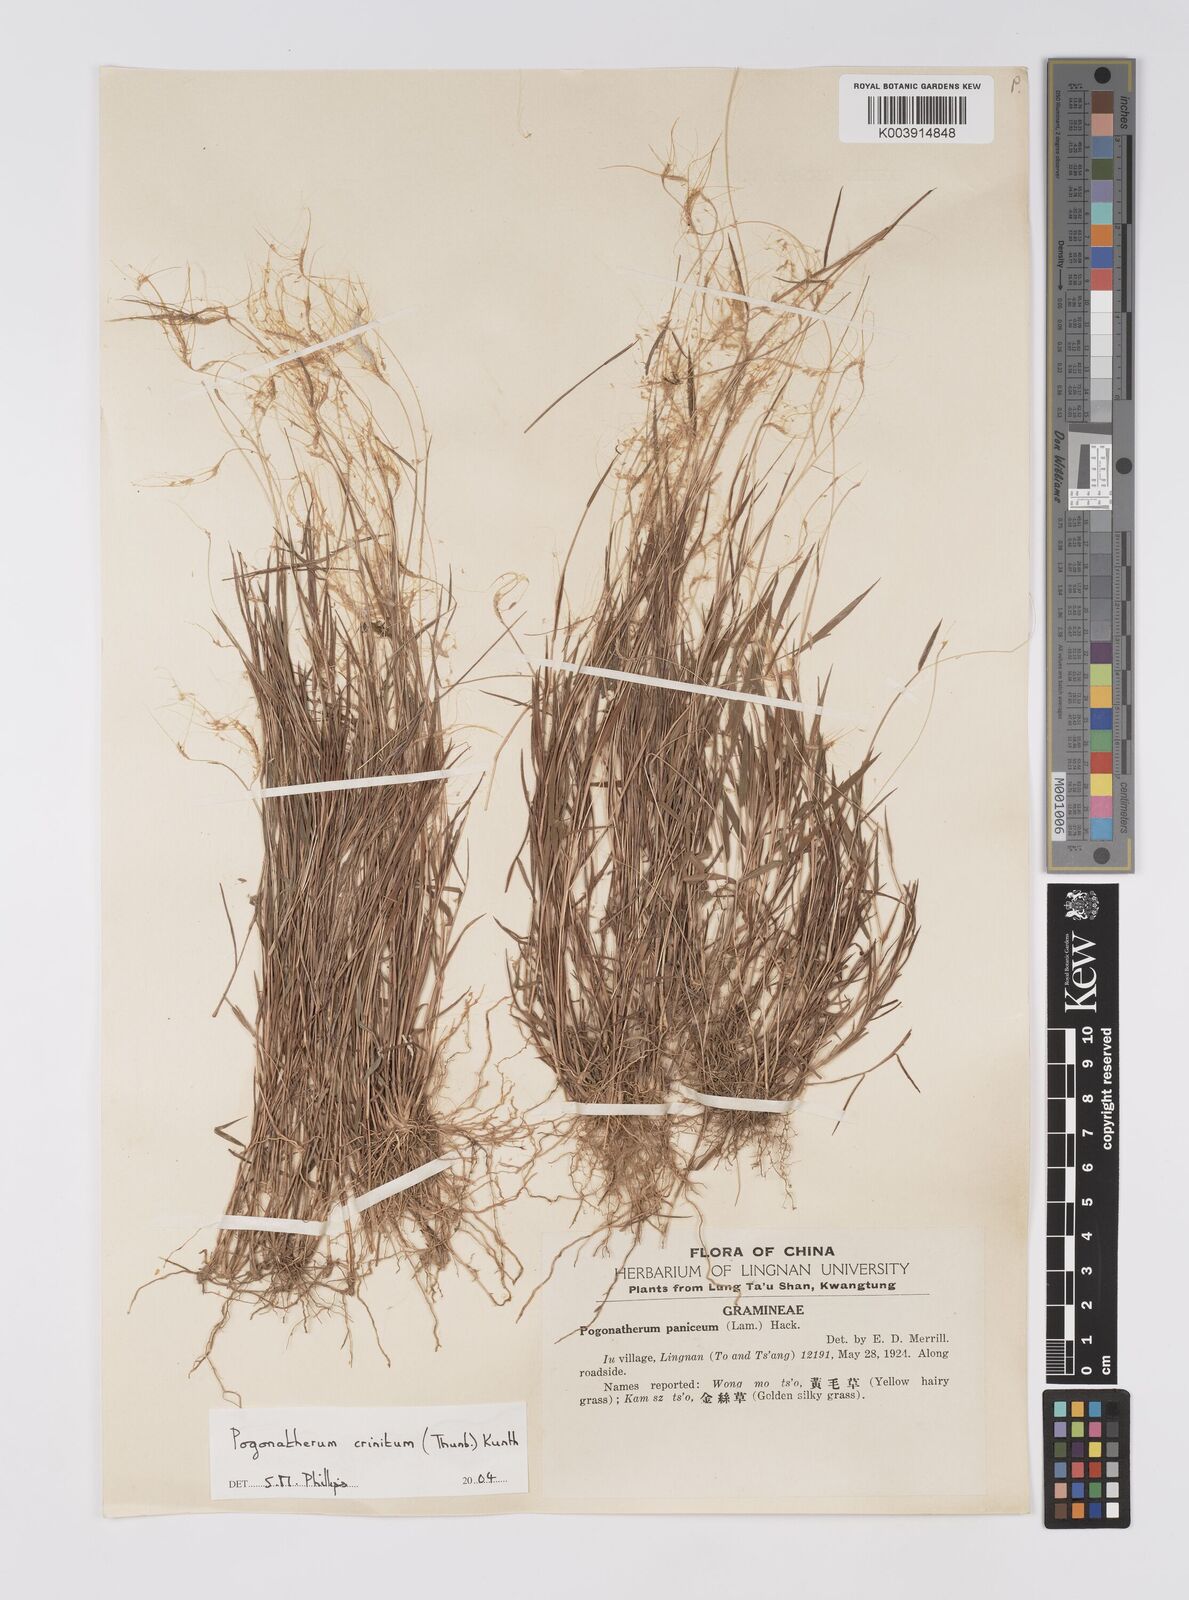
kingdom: Plantae
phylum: Tracheophyta
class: Liliopsida
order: Poales
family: Poaceae
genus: Pogonatherum
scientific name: Pogonatherum crinitum
